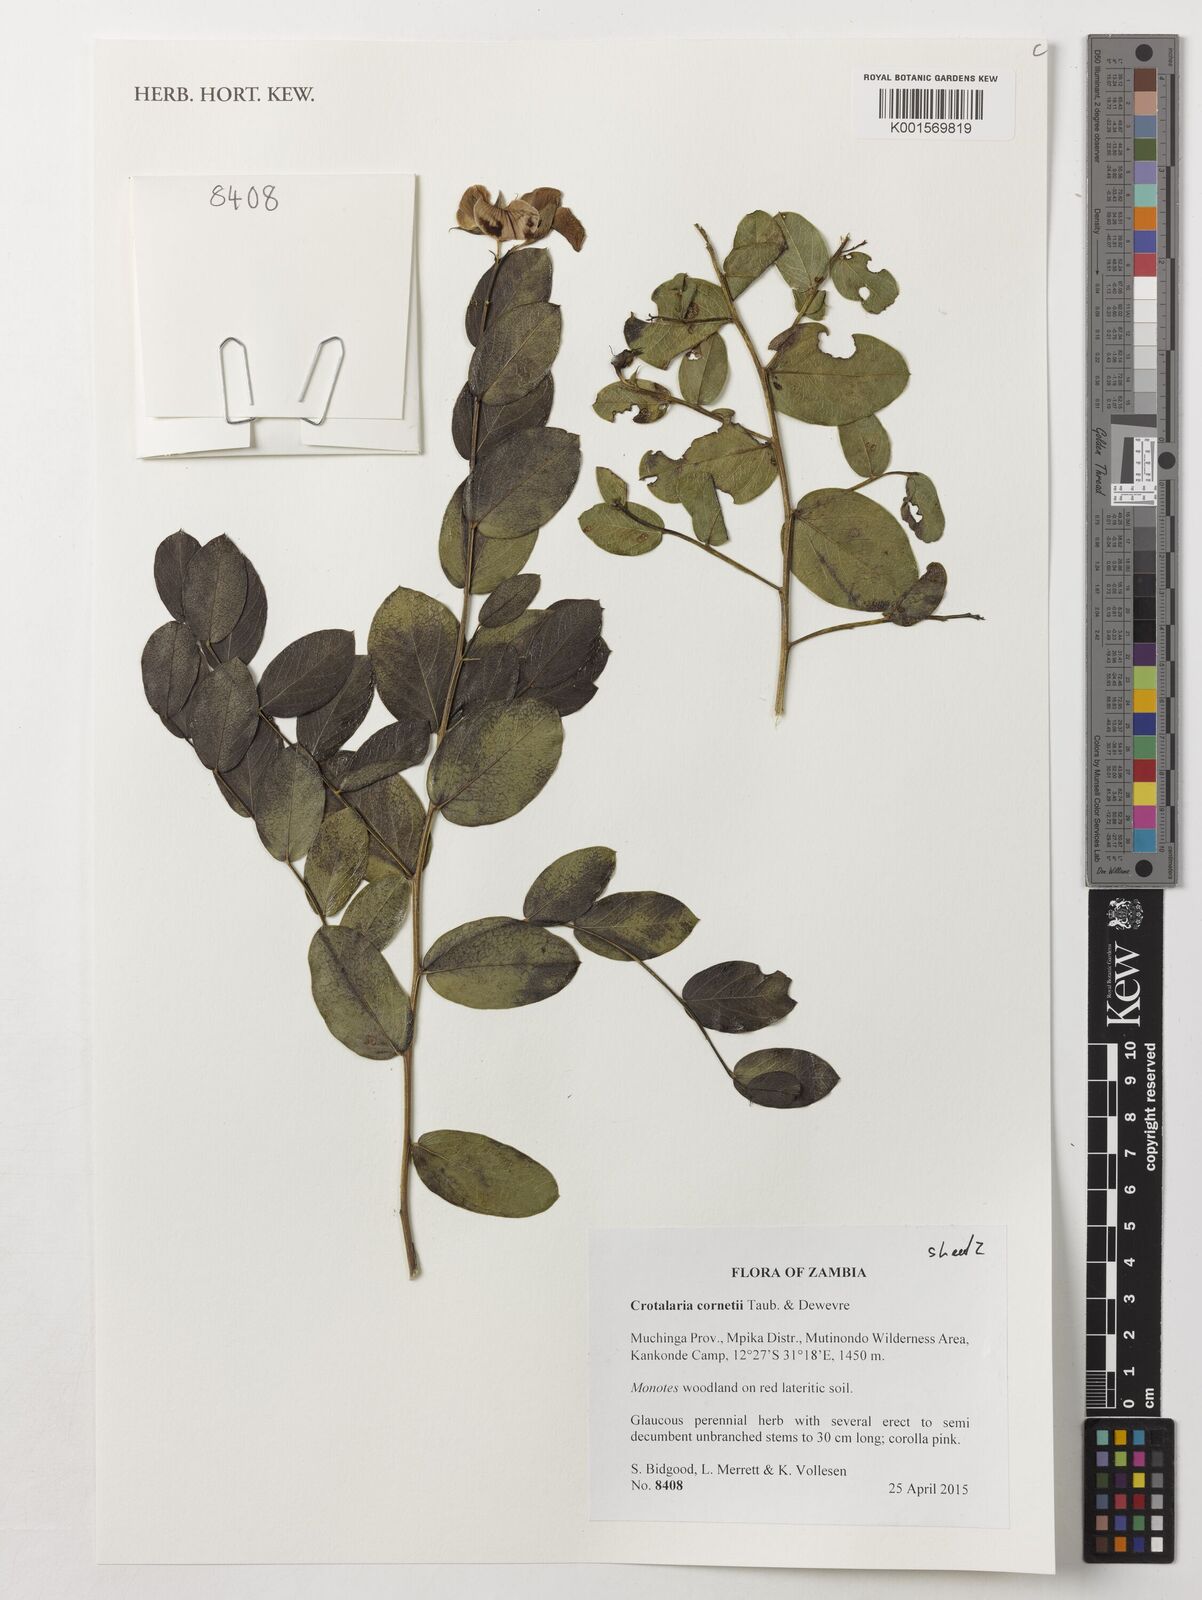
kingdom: Plantae
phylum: Tracheophyta
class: Magnoliopsida
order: Fabales
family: Fabaceae
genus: Crotalaria
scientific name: Crotalaria cornetii
